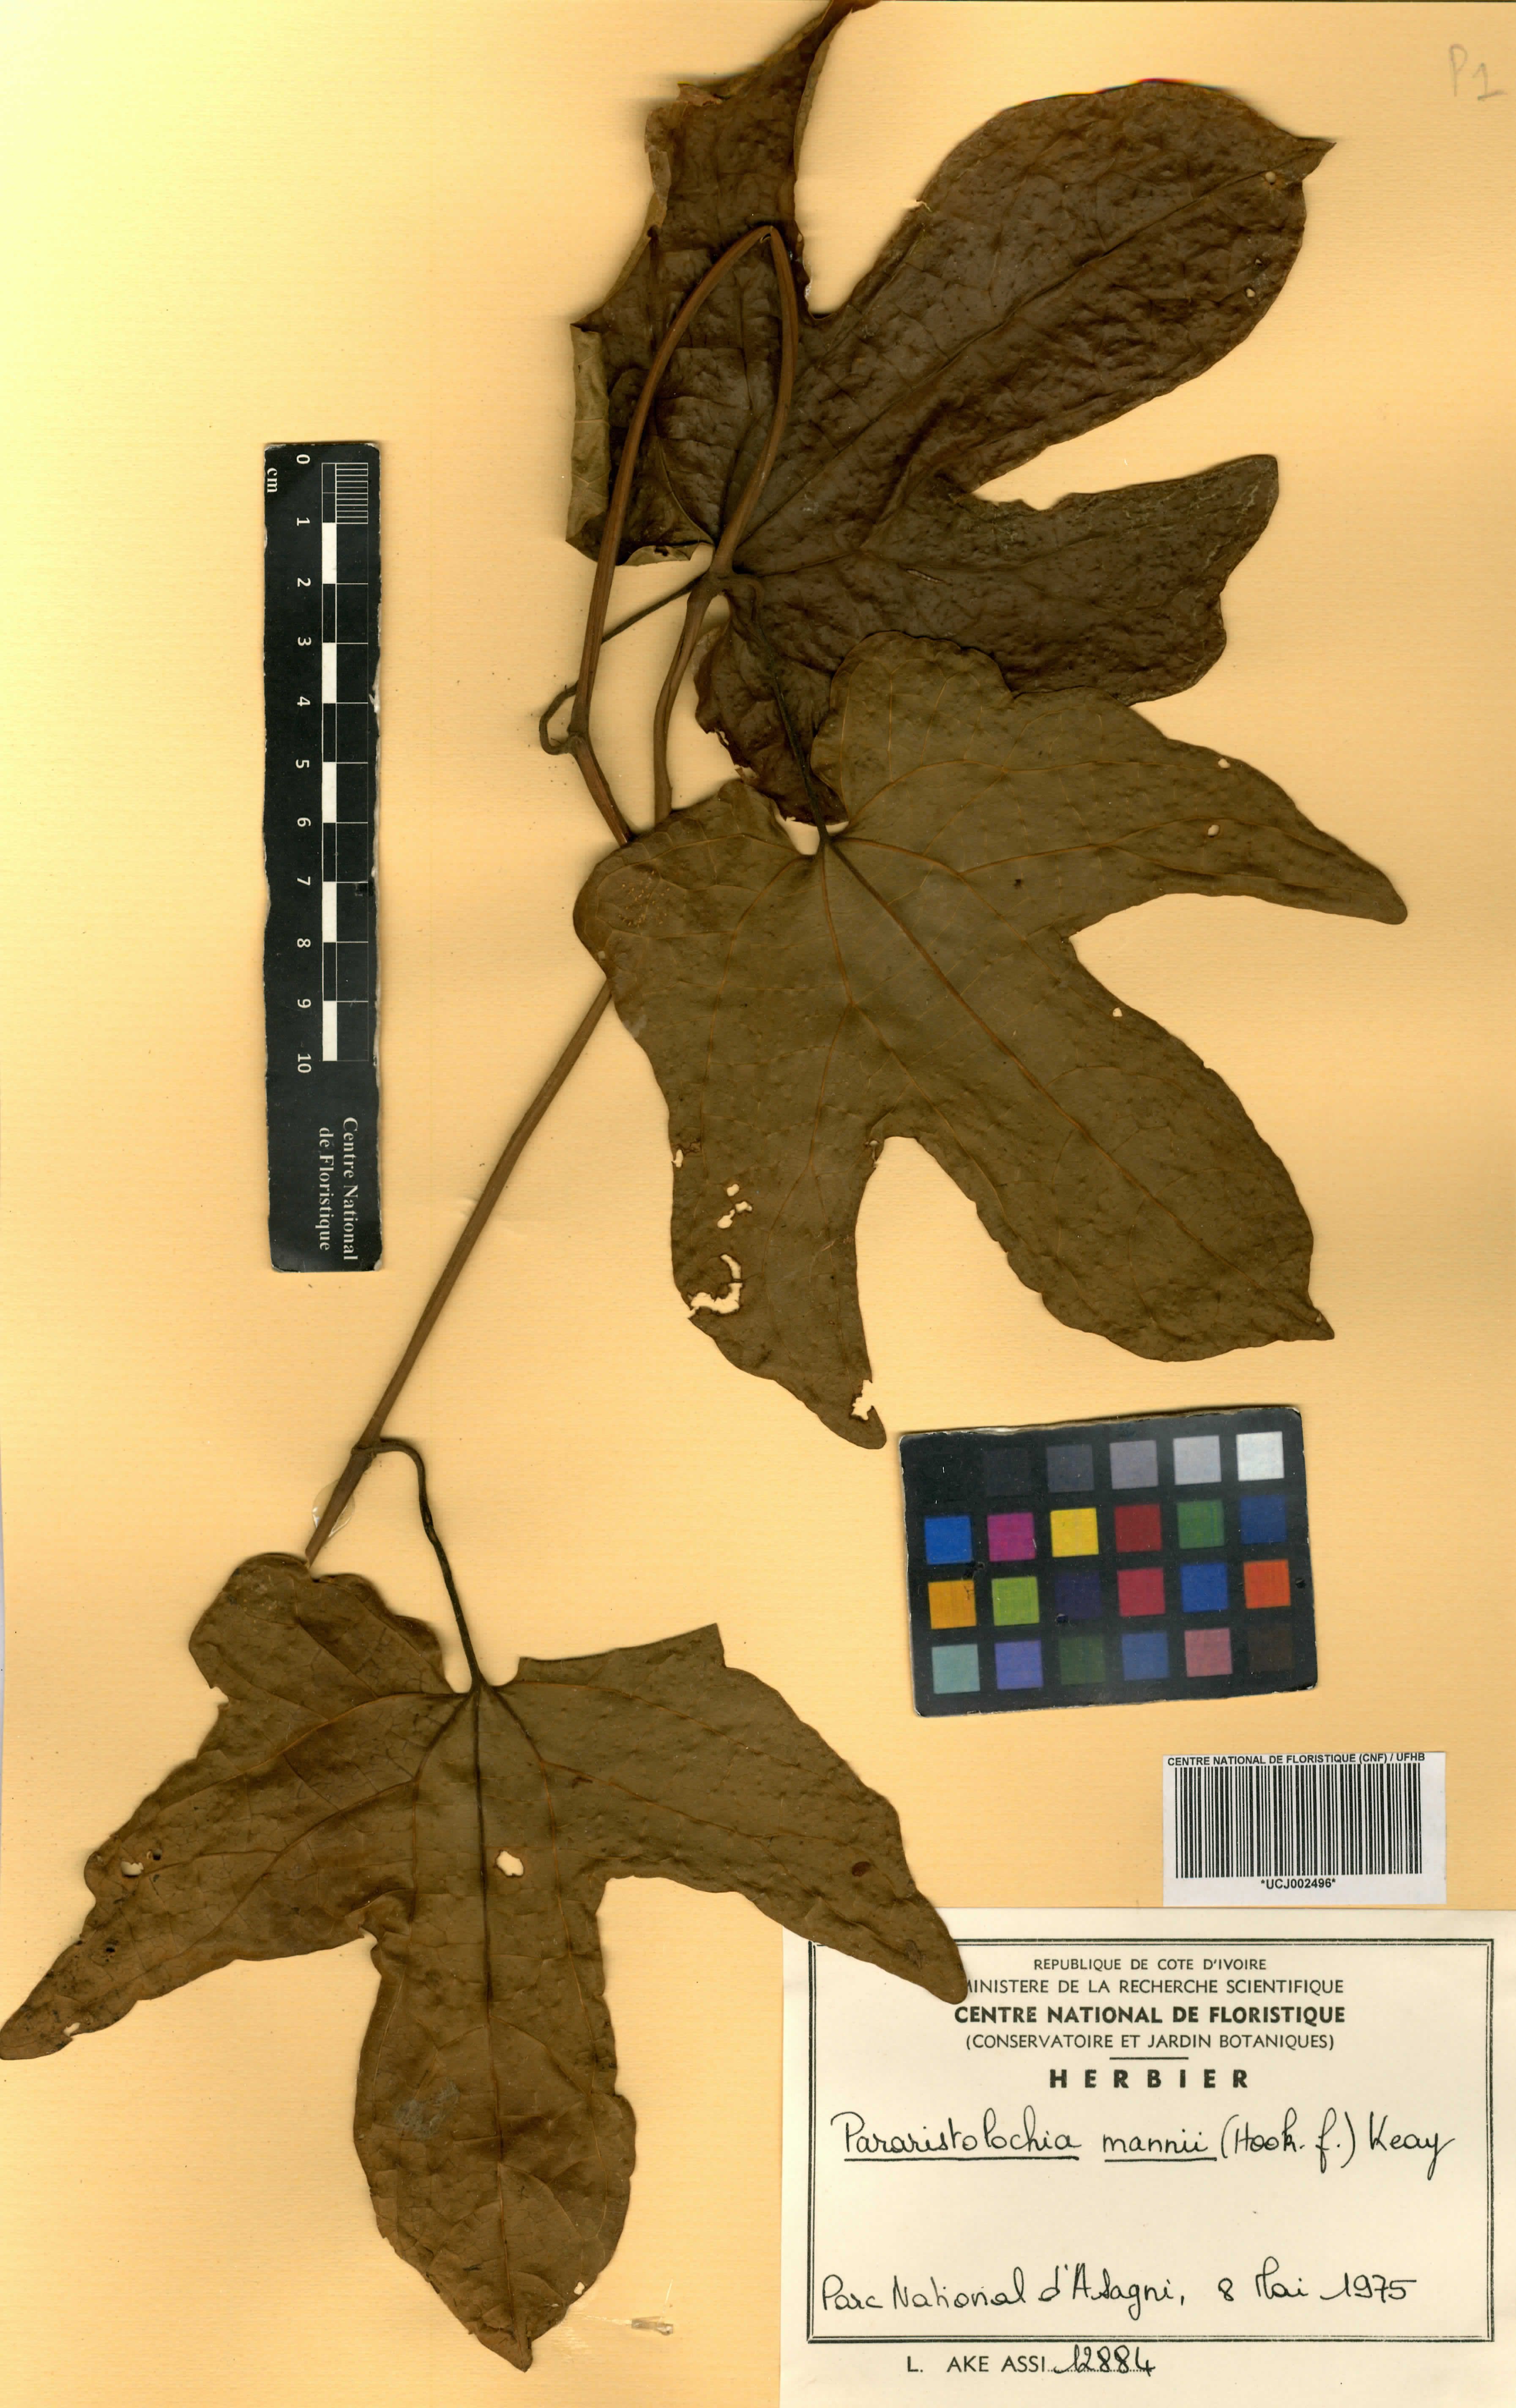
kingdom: Plantae
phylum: Tracheophyta
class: Magnoliopsida
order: Piperales
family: Aristolochiaceae
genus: Aristolochia
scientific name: Aristolochia mannii
